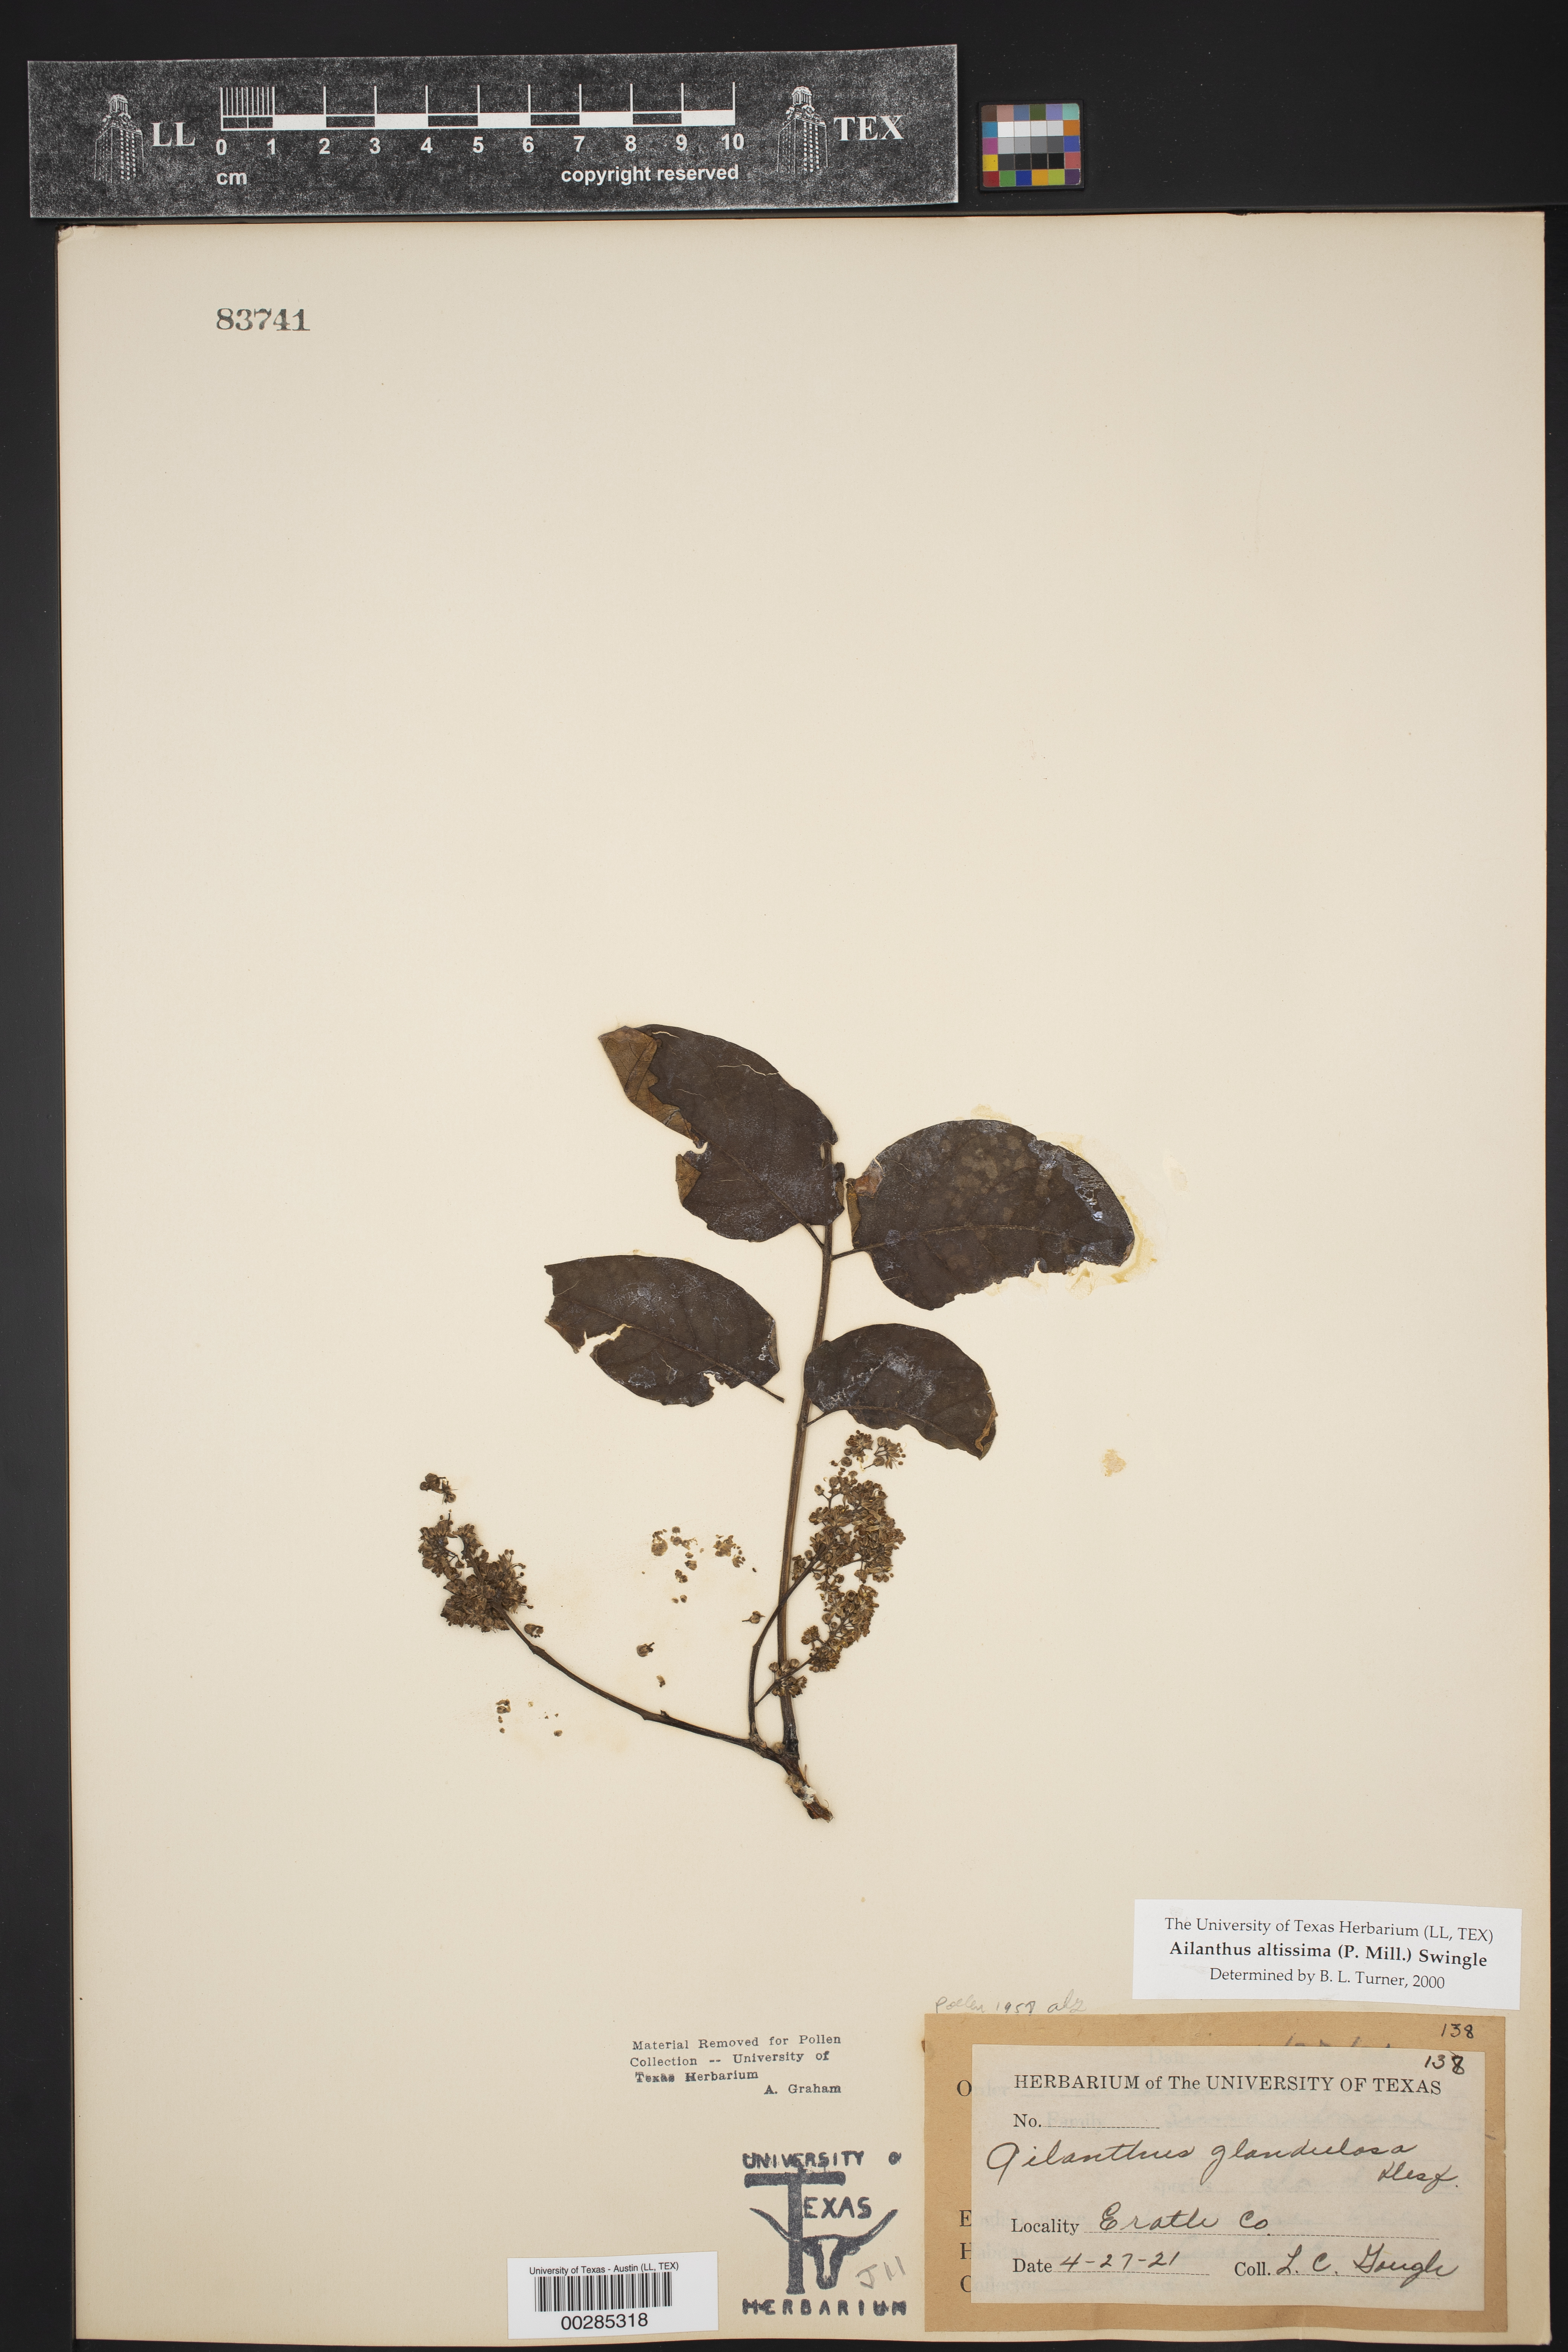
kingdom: Plantae
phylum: Tracheophyta
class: Magnoliopsida
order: Sapindales
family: Simaroubaceae
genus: Ailanthus
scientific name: Ailanthus altissima
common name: Tree-of-heaven
